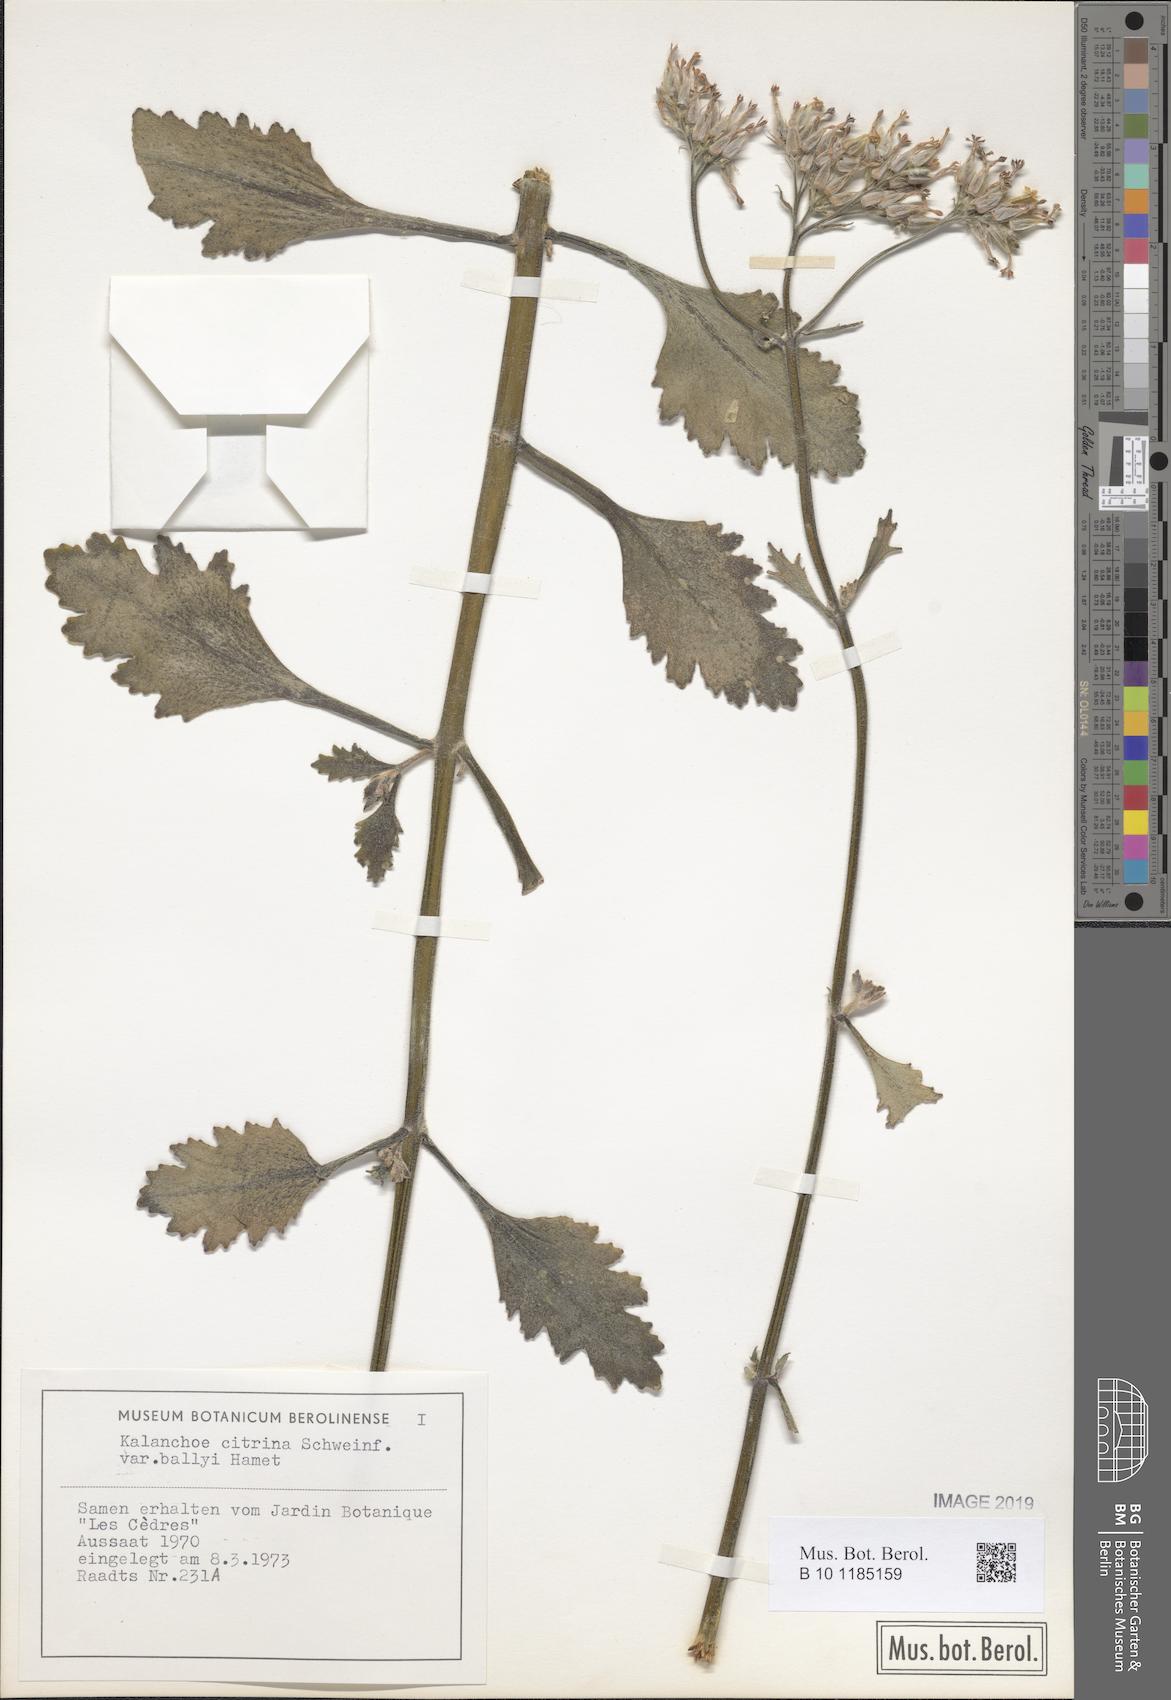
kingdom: Plantae
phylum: Tracheophyta
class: Magnoliopsida
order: Saxifragales
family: Crassulaceae
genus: Kalanchoe
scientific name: Kalanchoe citrina
